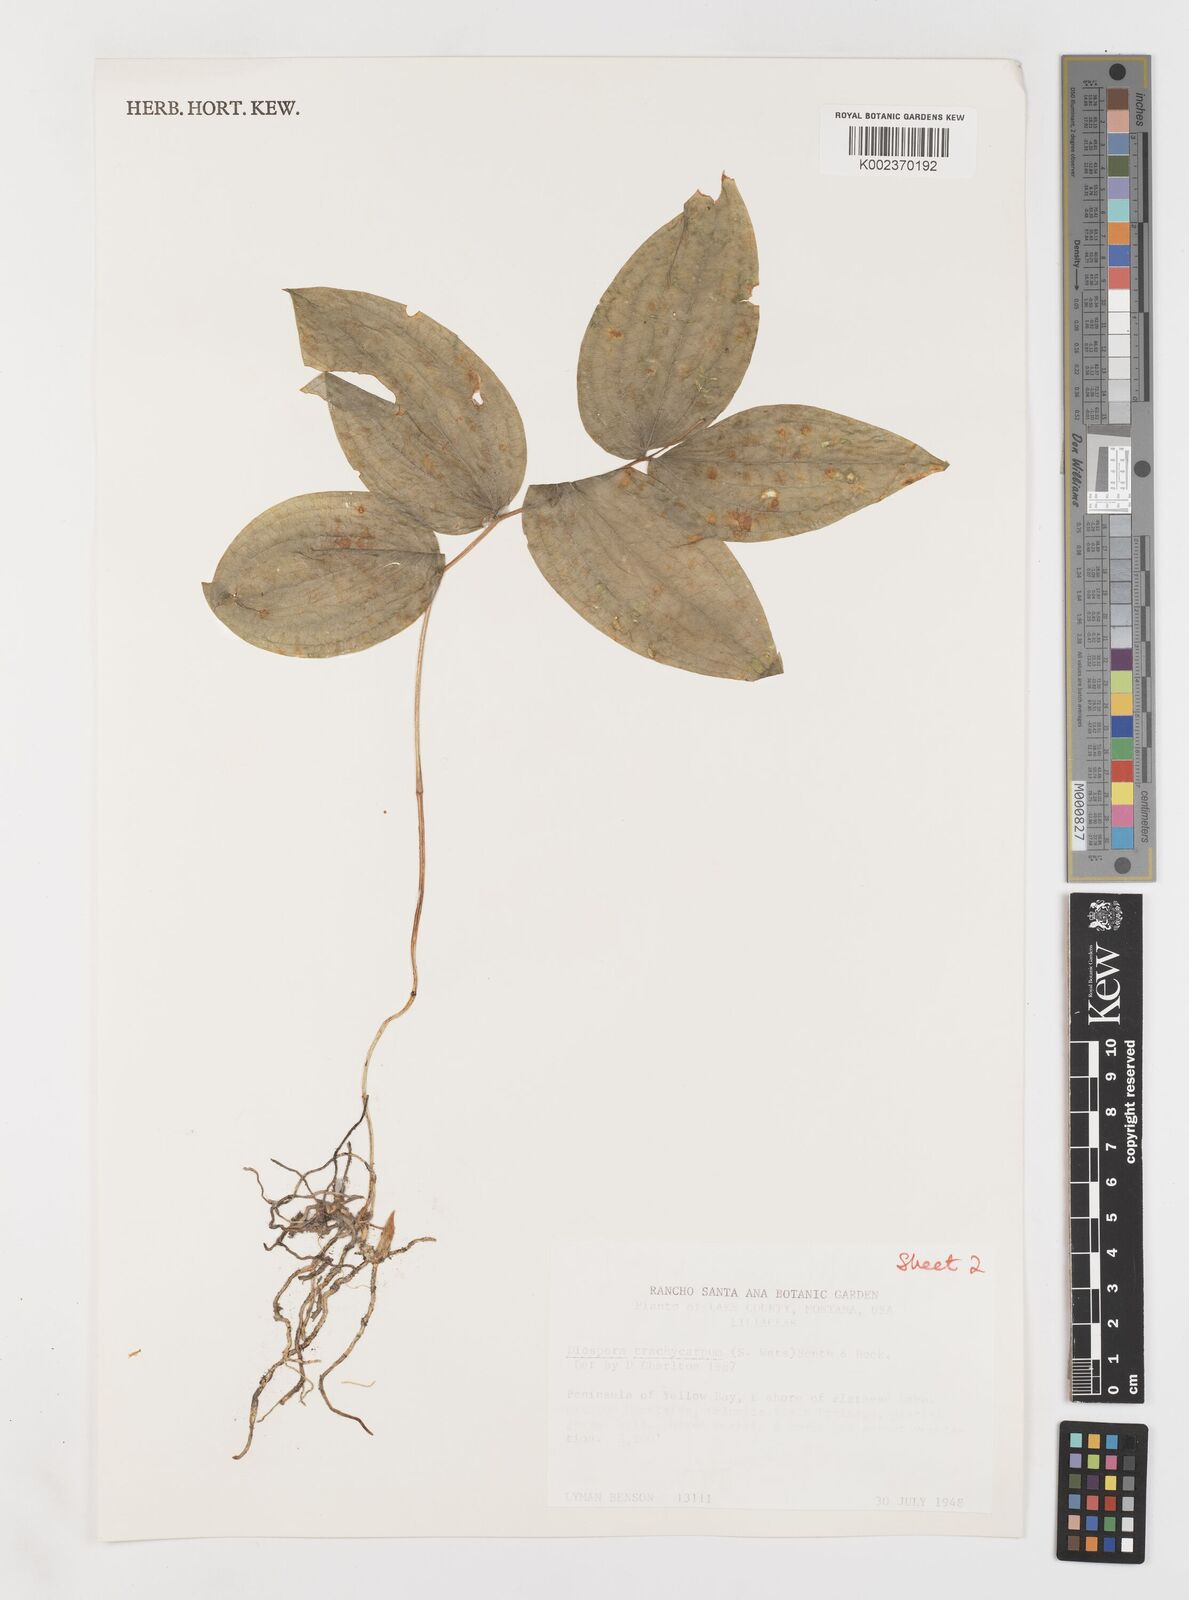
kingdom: Plantae
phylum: Tracheophyta
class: Liliopsida
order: Liliales
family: Liliaceae
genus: Prosartes
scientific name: Prosartes trachycarpa
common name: Rough-fruit fairy-bells
